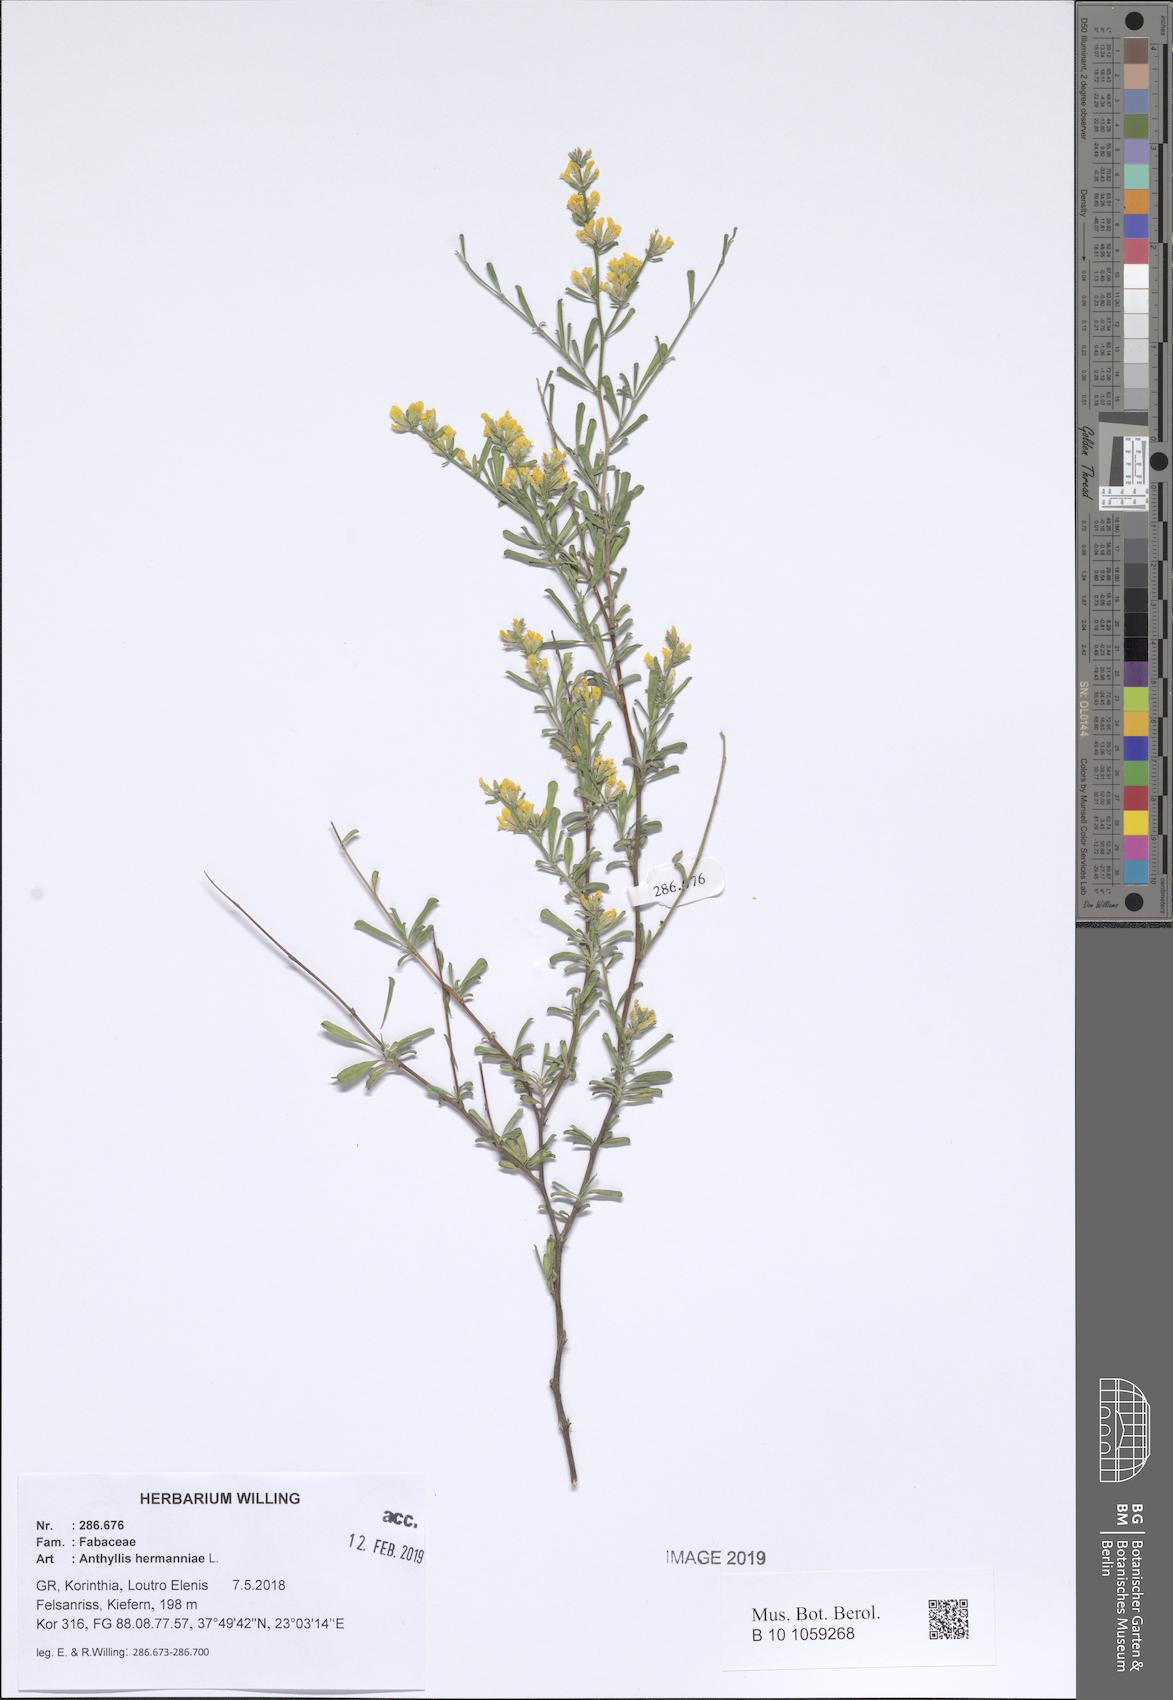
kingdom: Plantae
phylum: Tracheophyta
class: Magnoliopsida
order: Fabales
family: Fabaceae
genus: Anthyllis
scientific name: Anthyllis hermanniae
